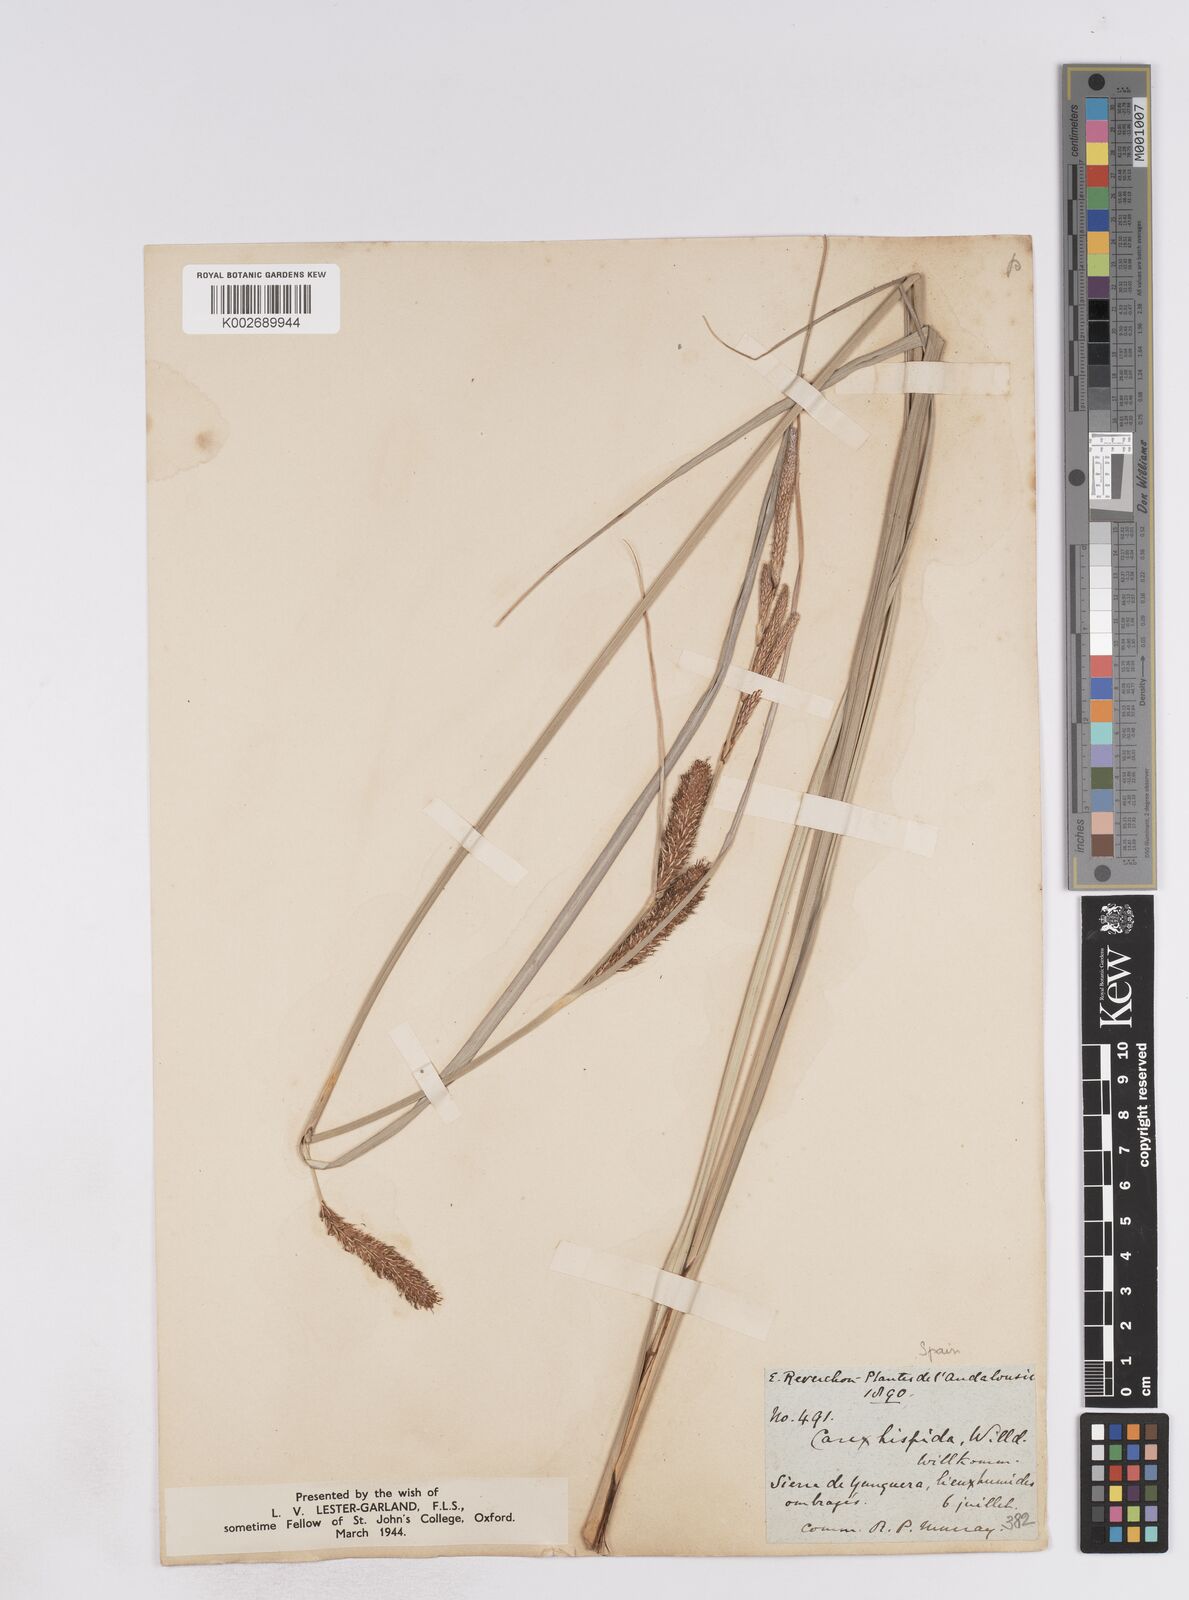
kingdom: Plantae
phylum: Tracheophyta
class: Liliopsida
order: Poales
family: Cyperaceae
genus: Carex
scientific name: Carex hispida
